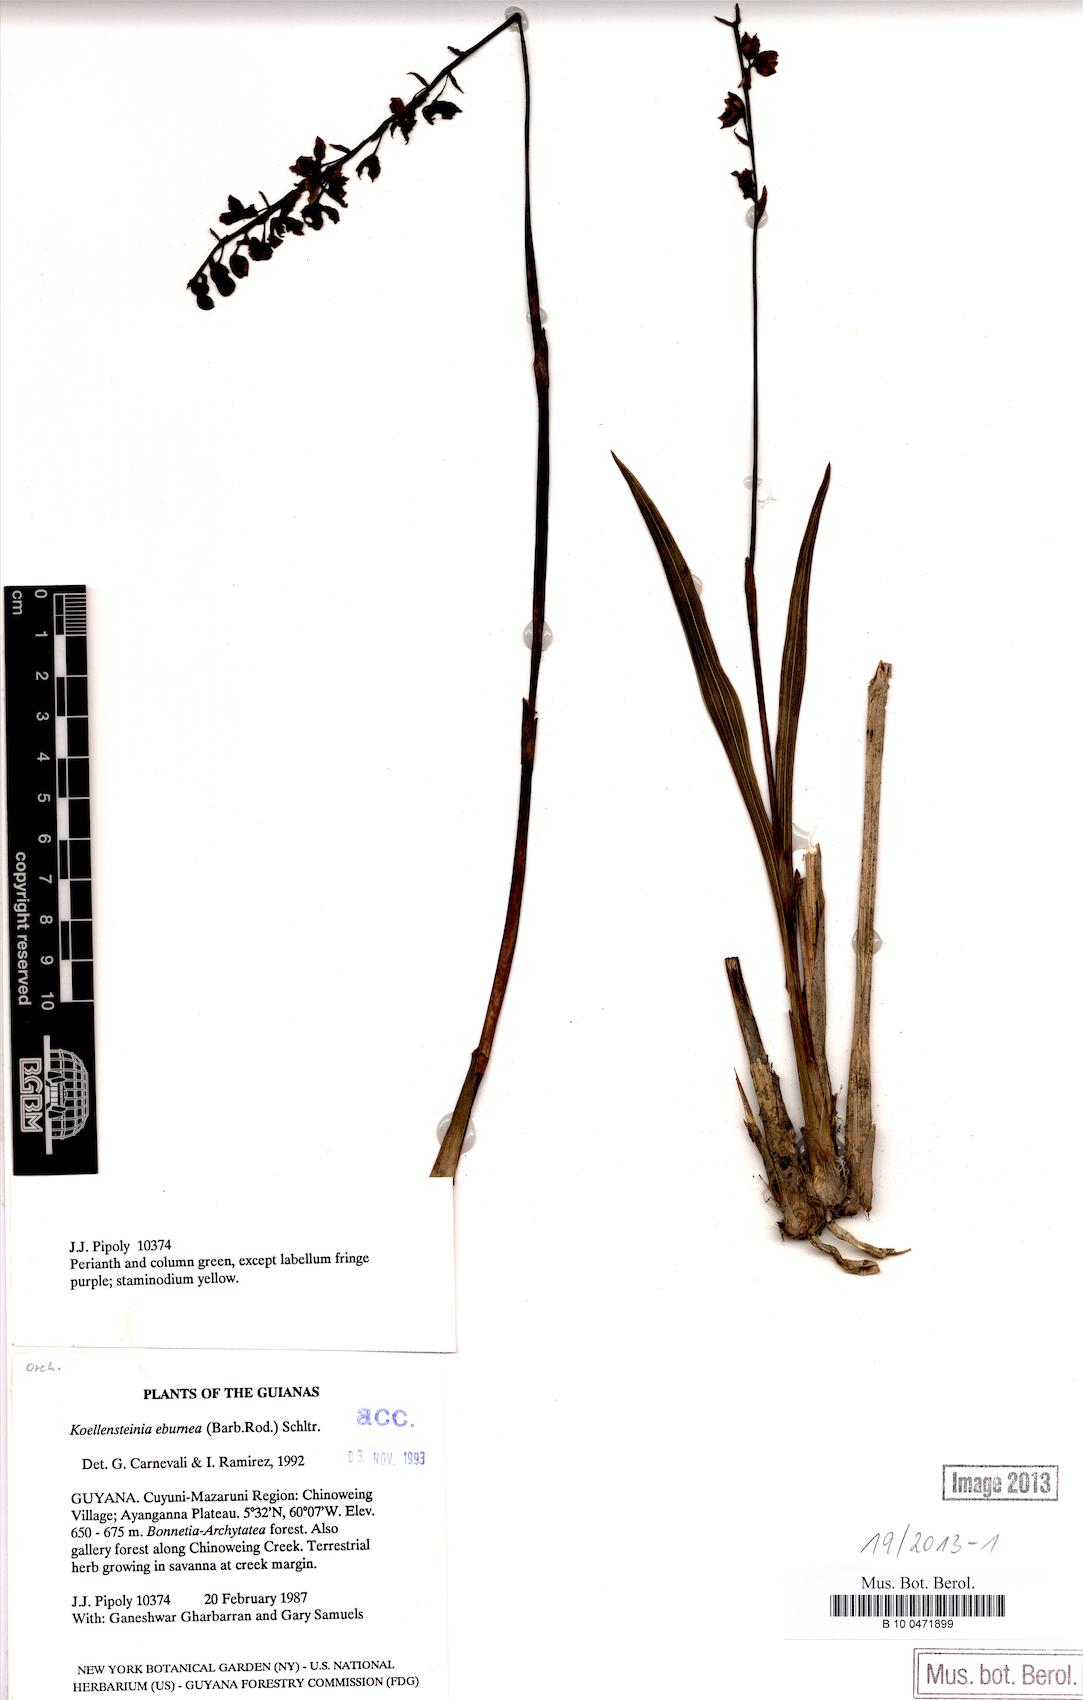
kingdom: Plantae
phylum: Tracheophyta
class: Liliopsida
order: Asparagales
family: Orchidaceae
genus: Koellensteinia
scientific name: Koellensteinia eburnea
